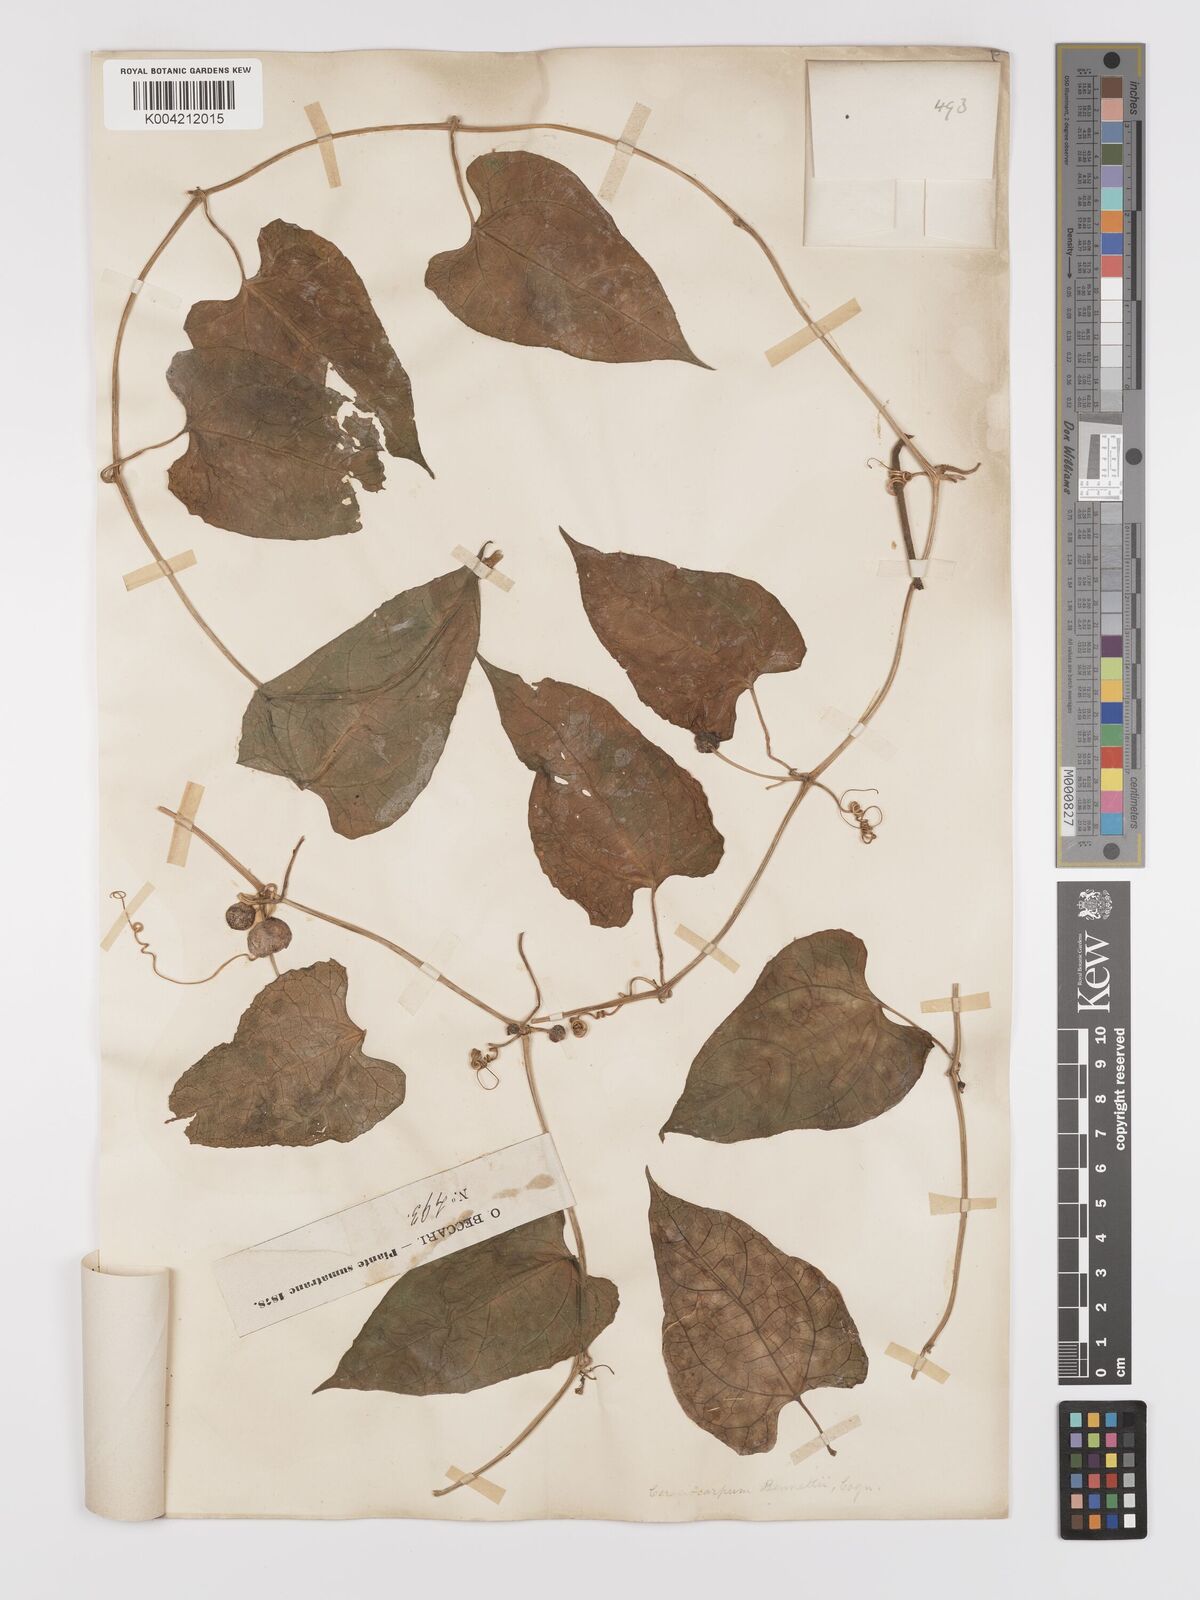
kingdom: Plantae
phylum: Tracheophyta
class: Magnoliopsida
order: Cucurbitales
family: Cucurbitaceae
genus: Kedrostis
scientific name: Kedrostis courtallensis
